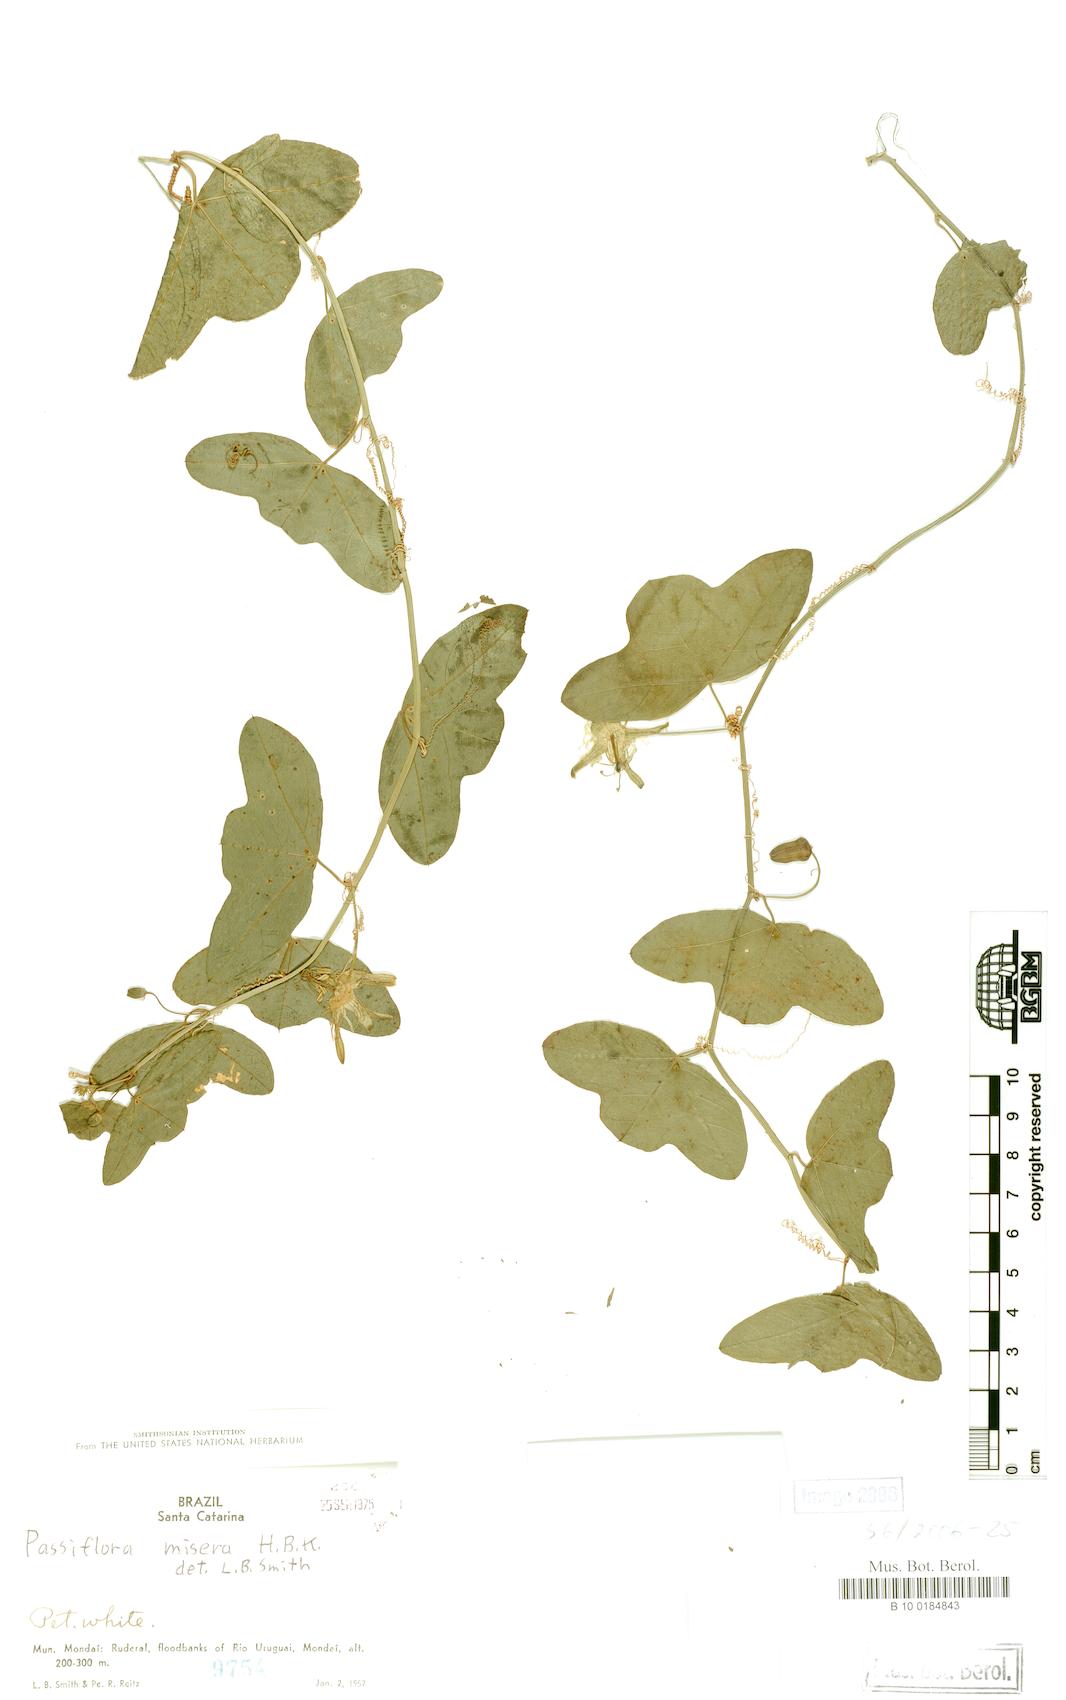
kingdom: Plantae
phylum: Tracheophyta
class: Magnoliopsida
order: Malpighiales
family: Passifloraceae
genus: Passiflora
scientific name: Passiflora transversalis
